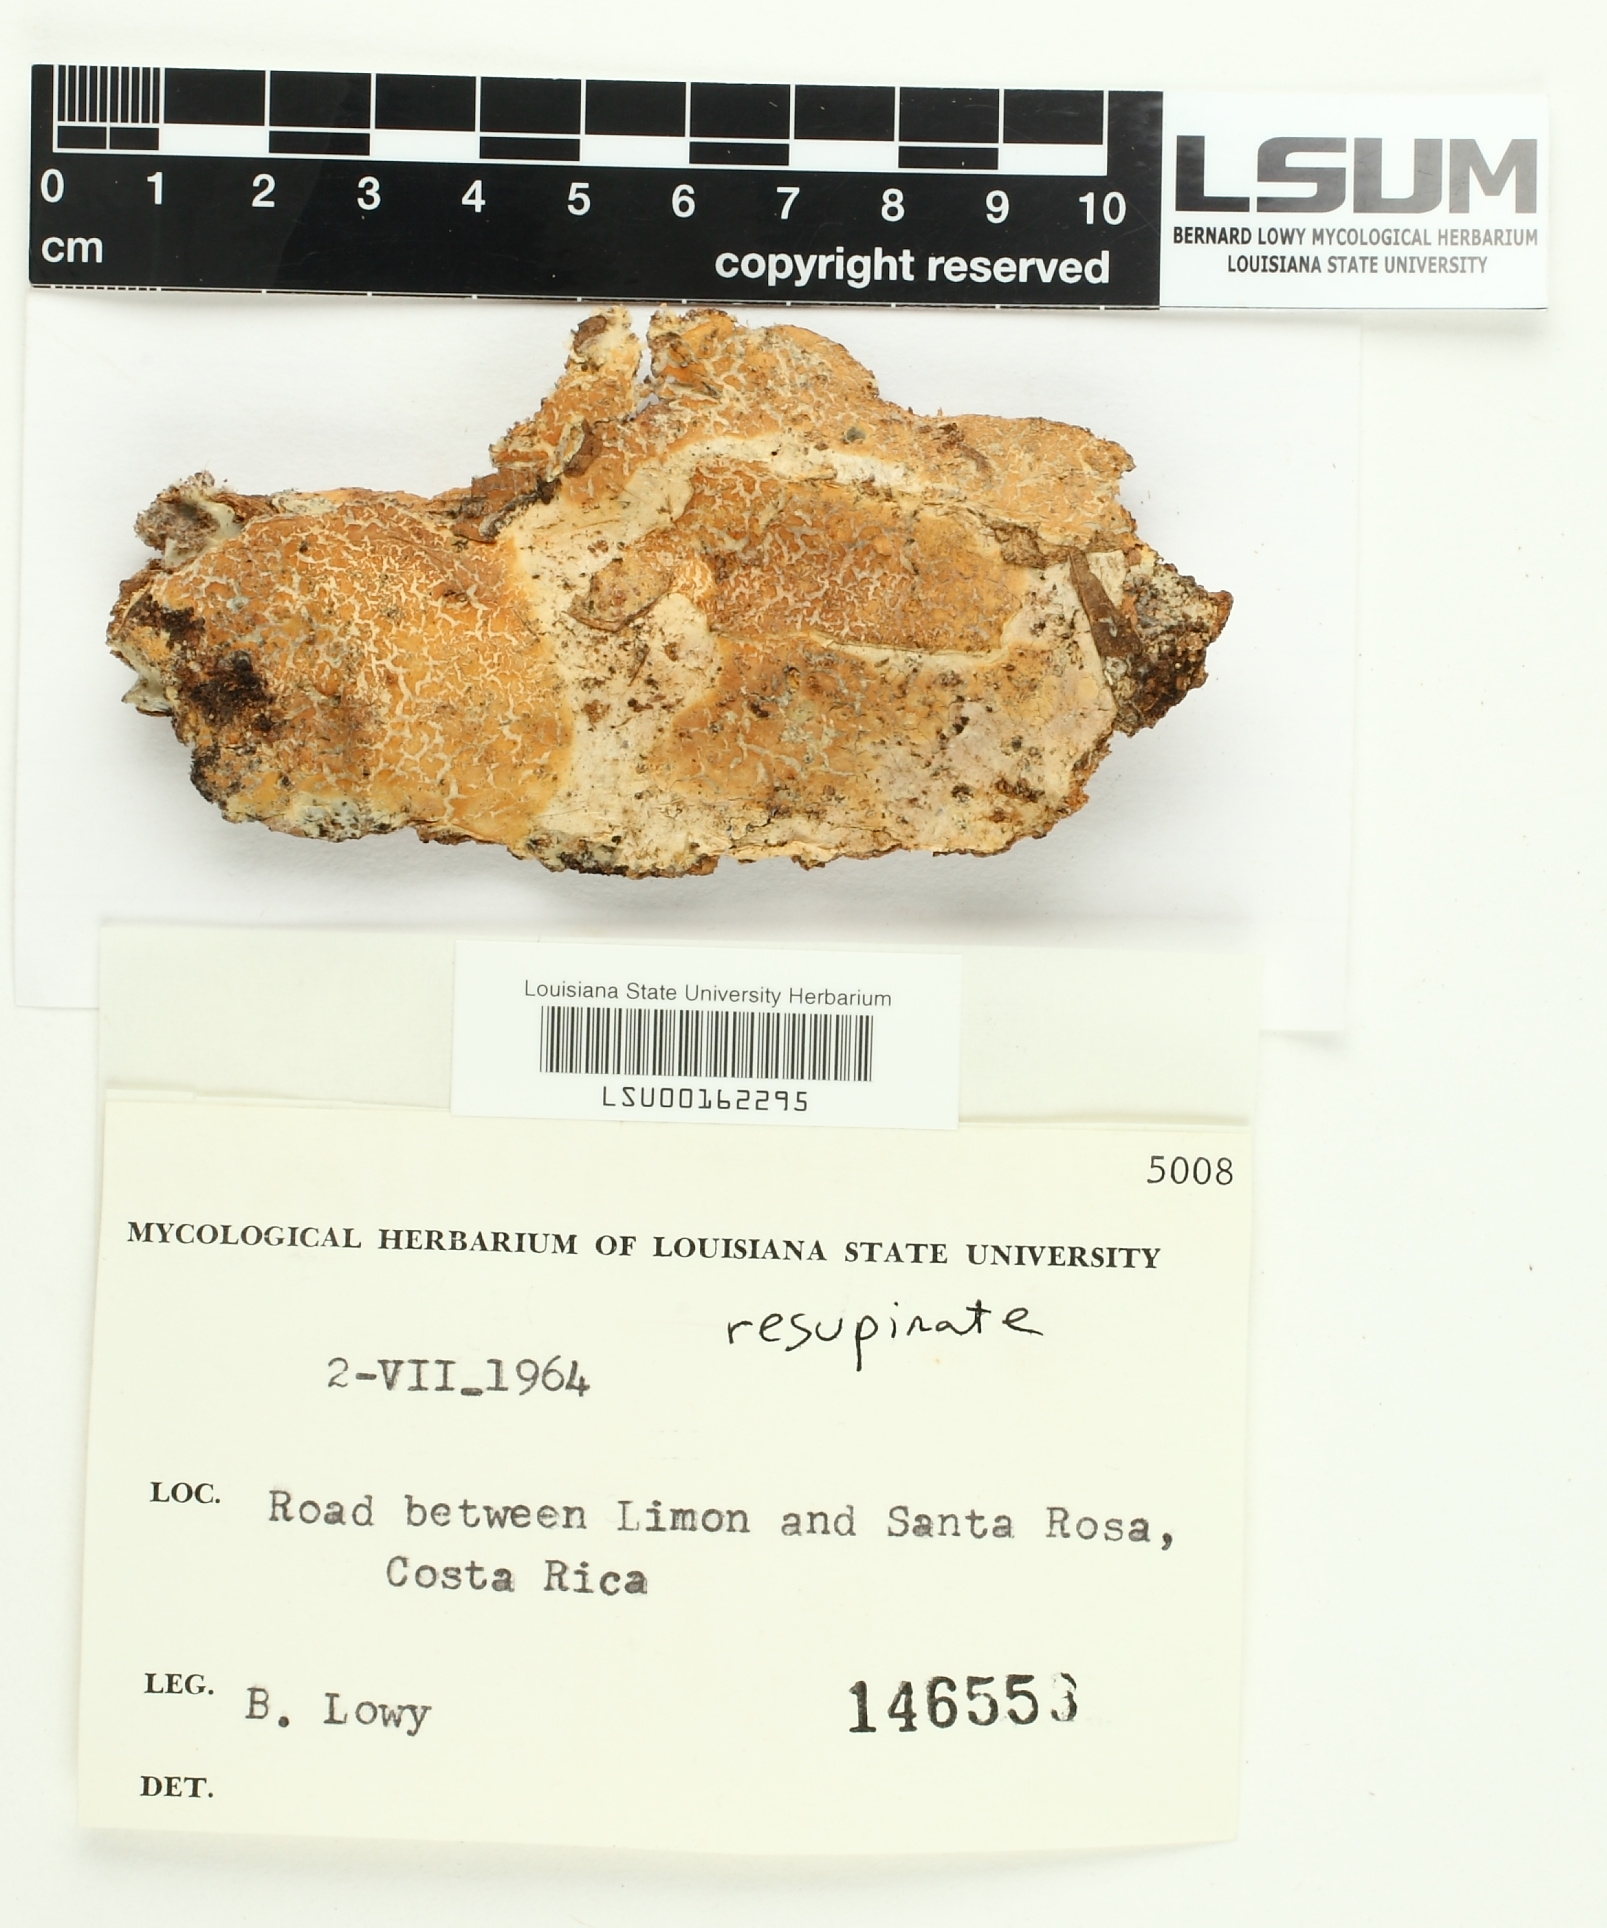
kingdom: Fungi
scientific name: Fungi
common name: Fungi
